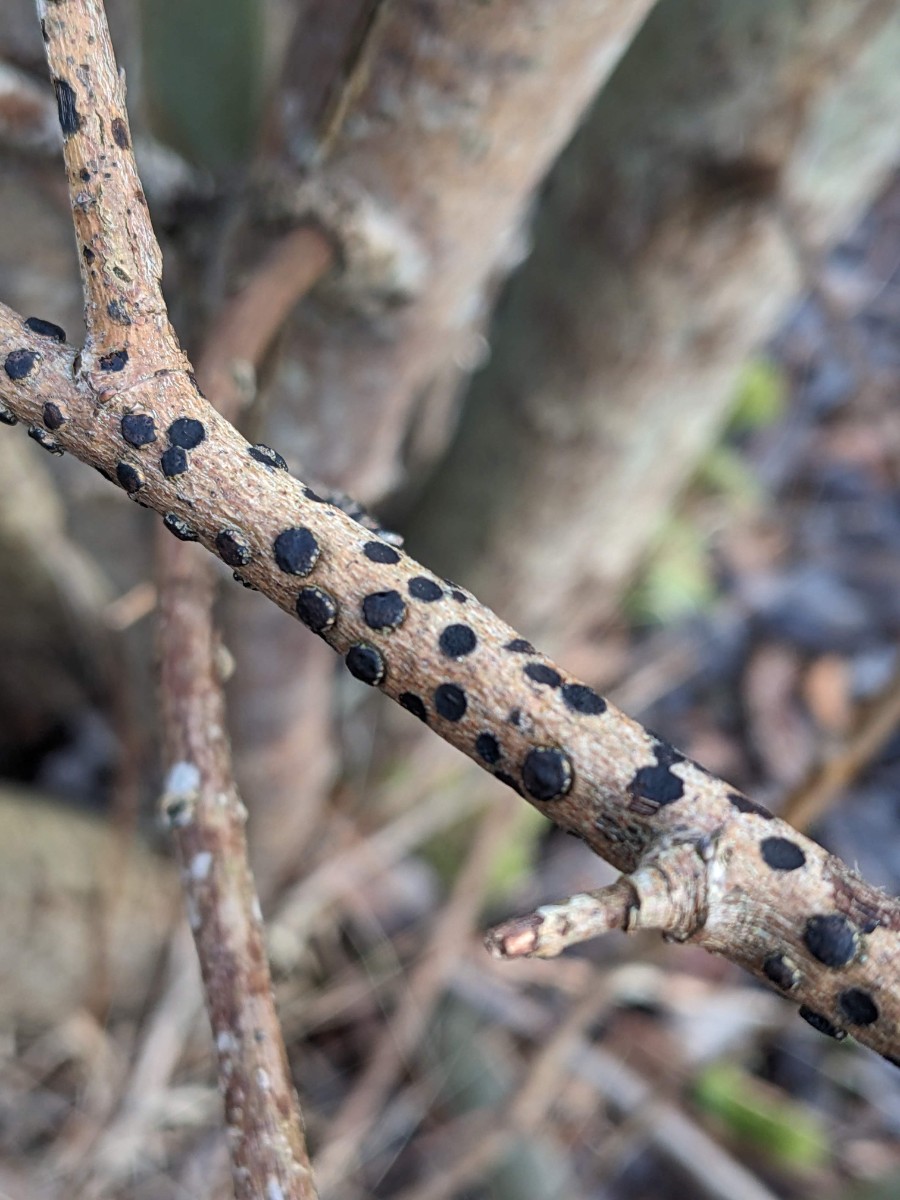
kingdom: Fungi
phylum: Ascomycota
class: Sordariomycetes
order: Xylariales
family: Diatrypaceae
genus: Diatrype
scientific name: Diatrype bullata
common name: pile-kulskorpe
